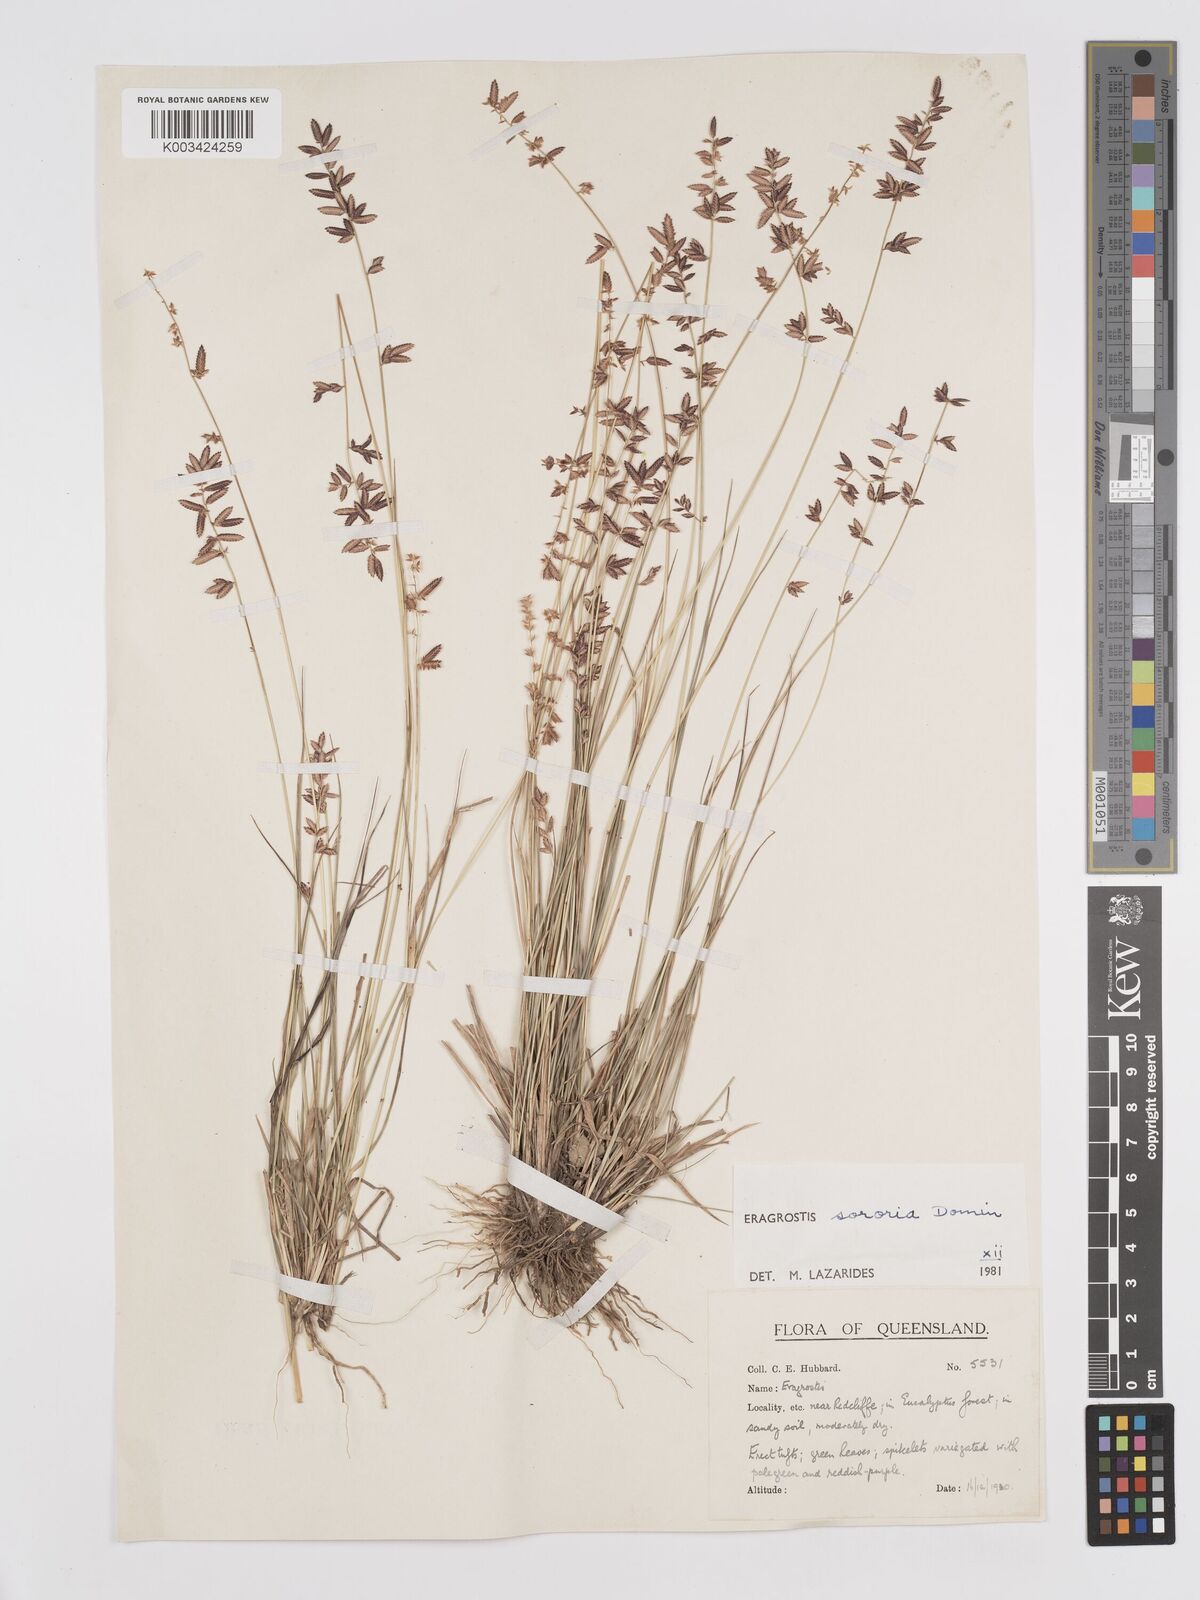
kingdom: Plantae
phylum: Tracheophyta
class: Liliopsida
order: Poales
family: Poaceae
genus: Eragrostis
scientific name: Eragrostis sororia
